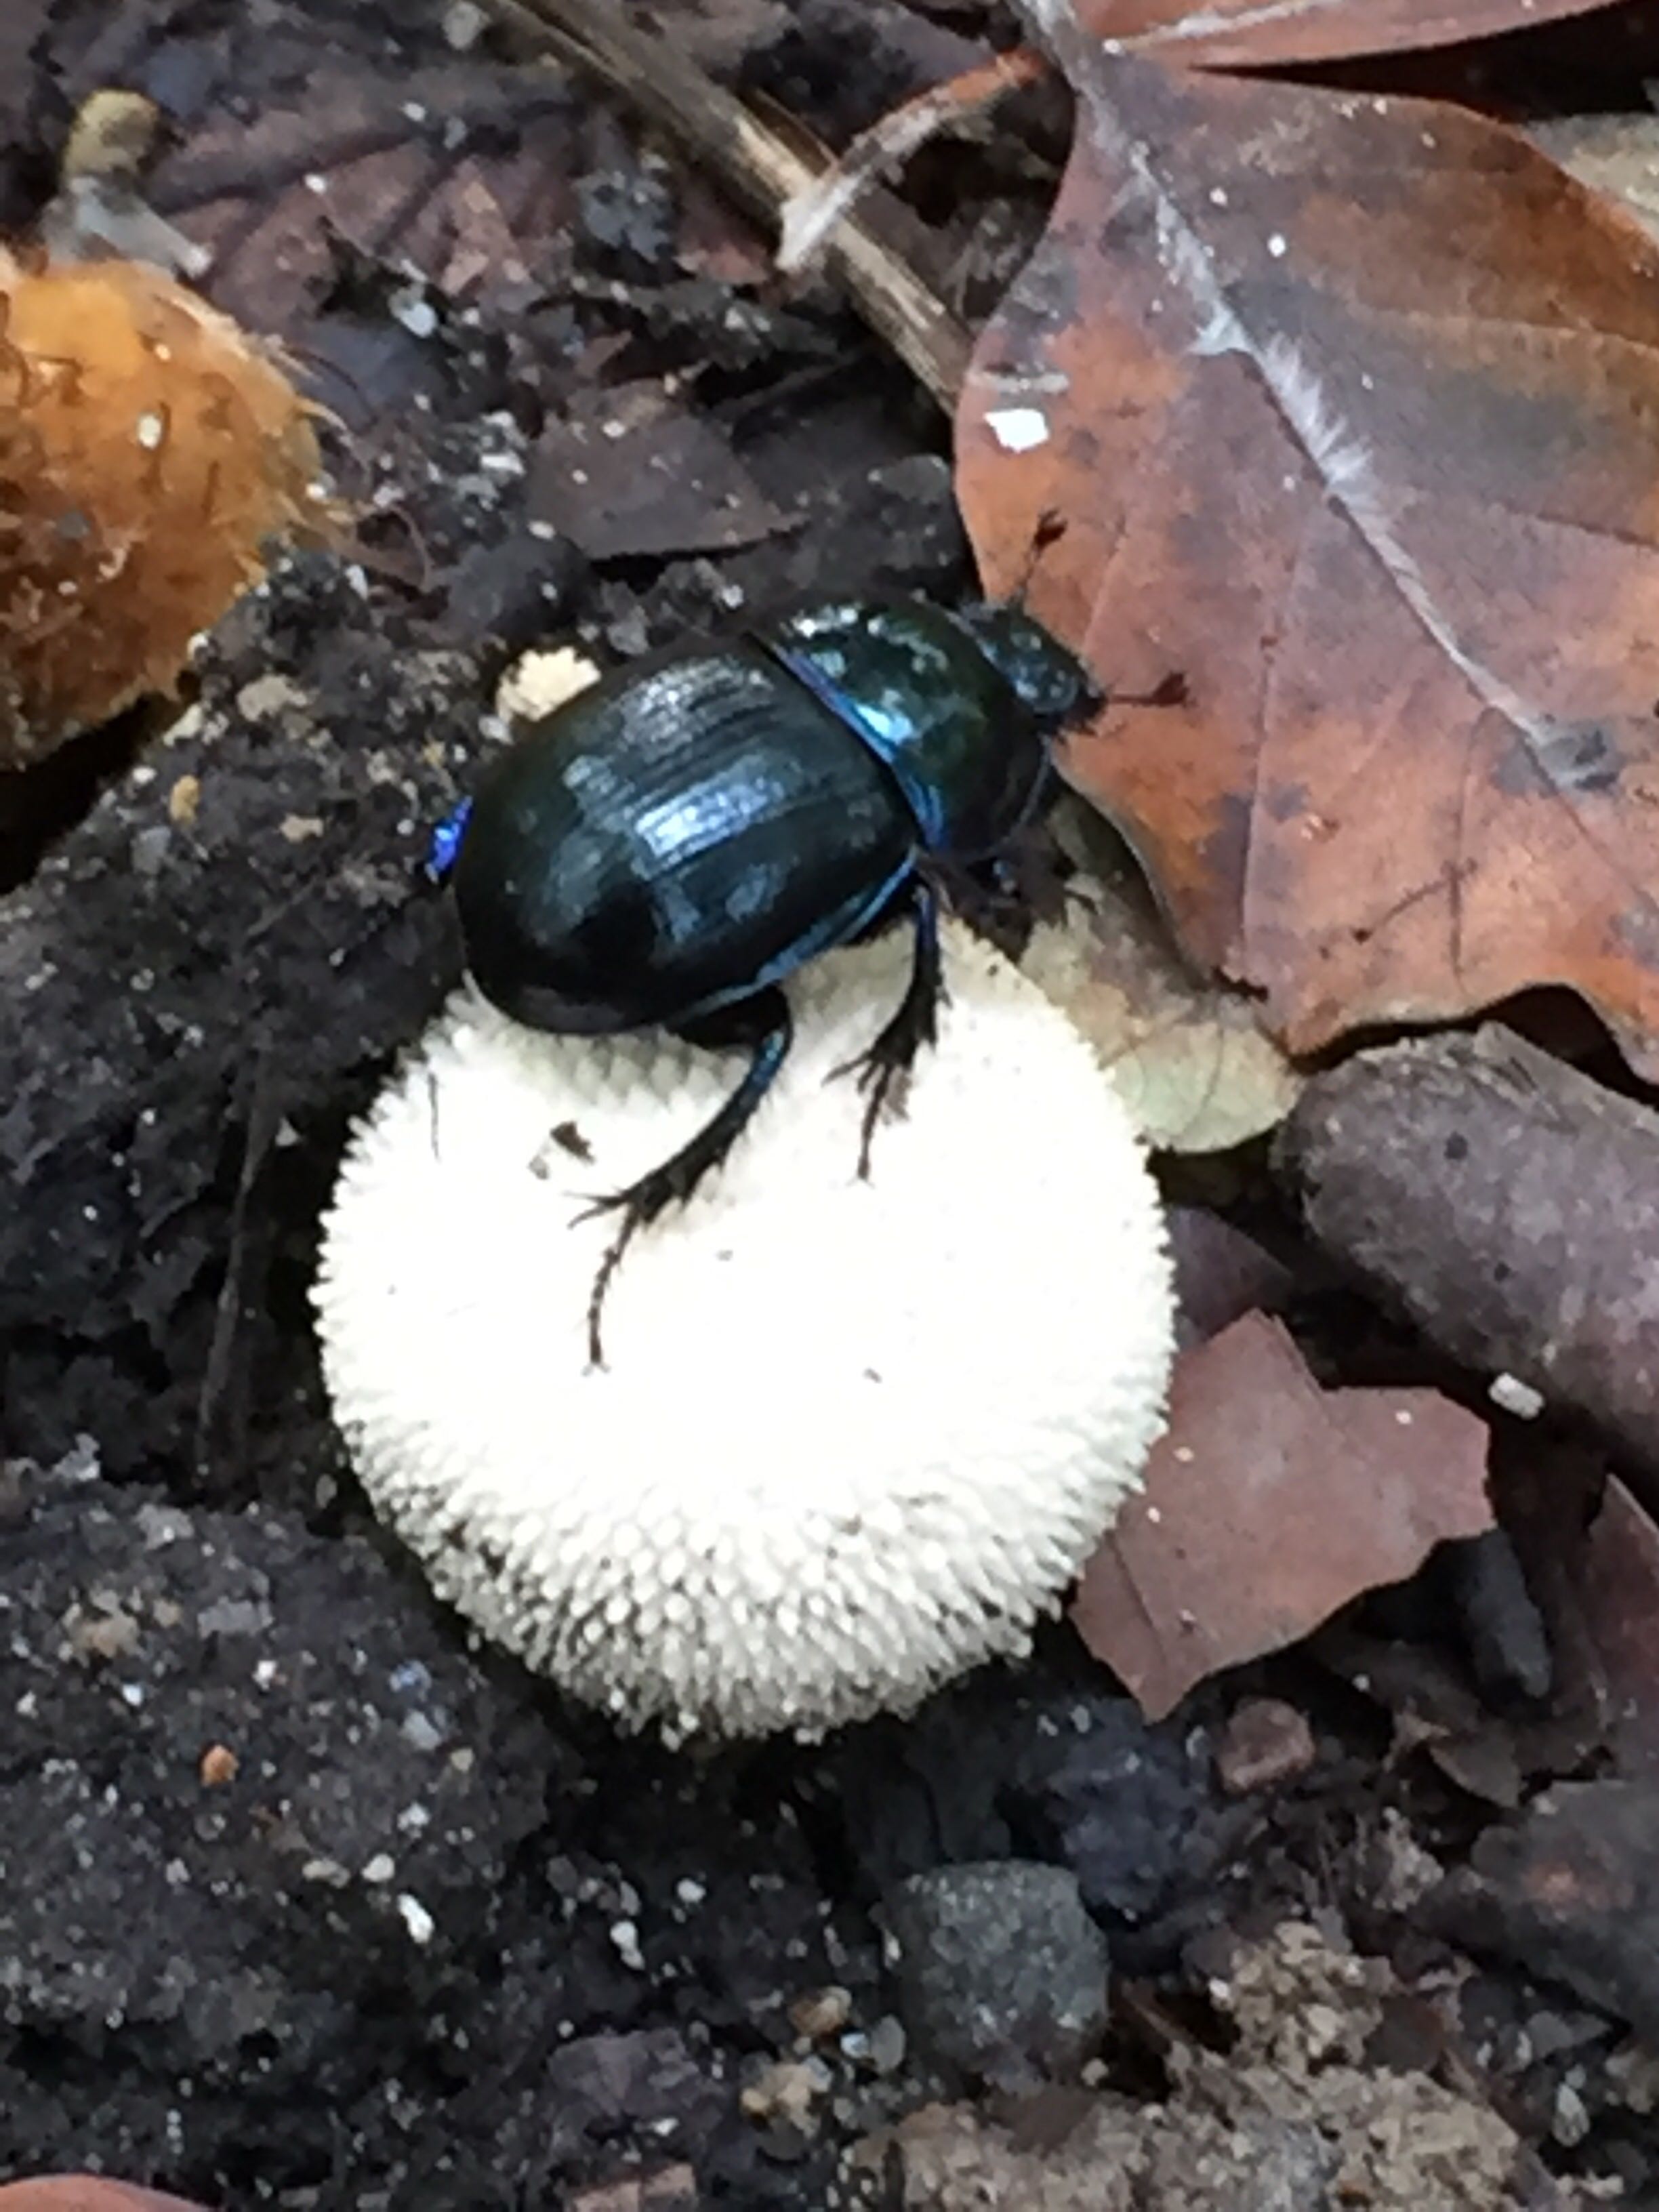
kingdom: Fungi
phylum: Basidiomycota
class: Agaricomycetes
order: Agaricales
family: Lycoperdaceae
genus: Lycoperdon
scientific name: Lycoperdon perlatum
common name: krystal-støvbold
